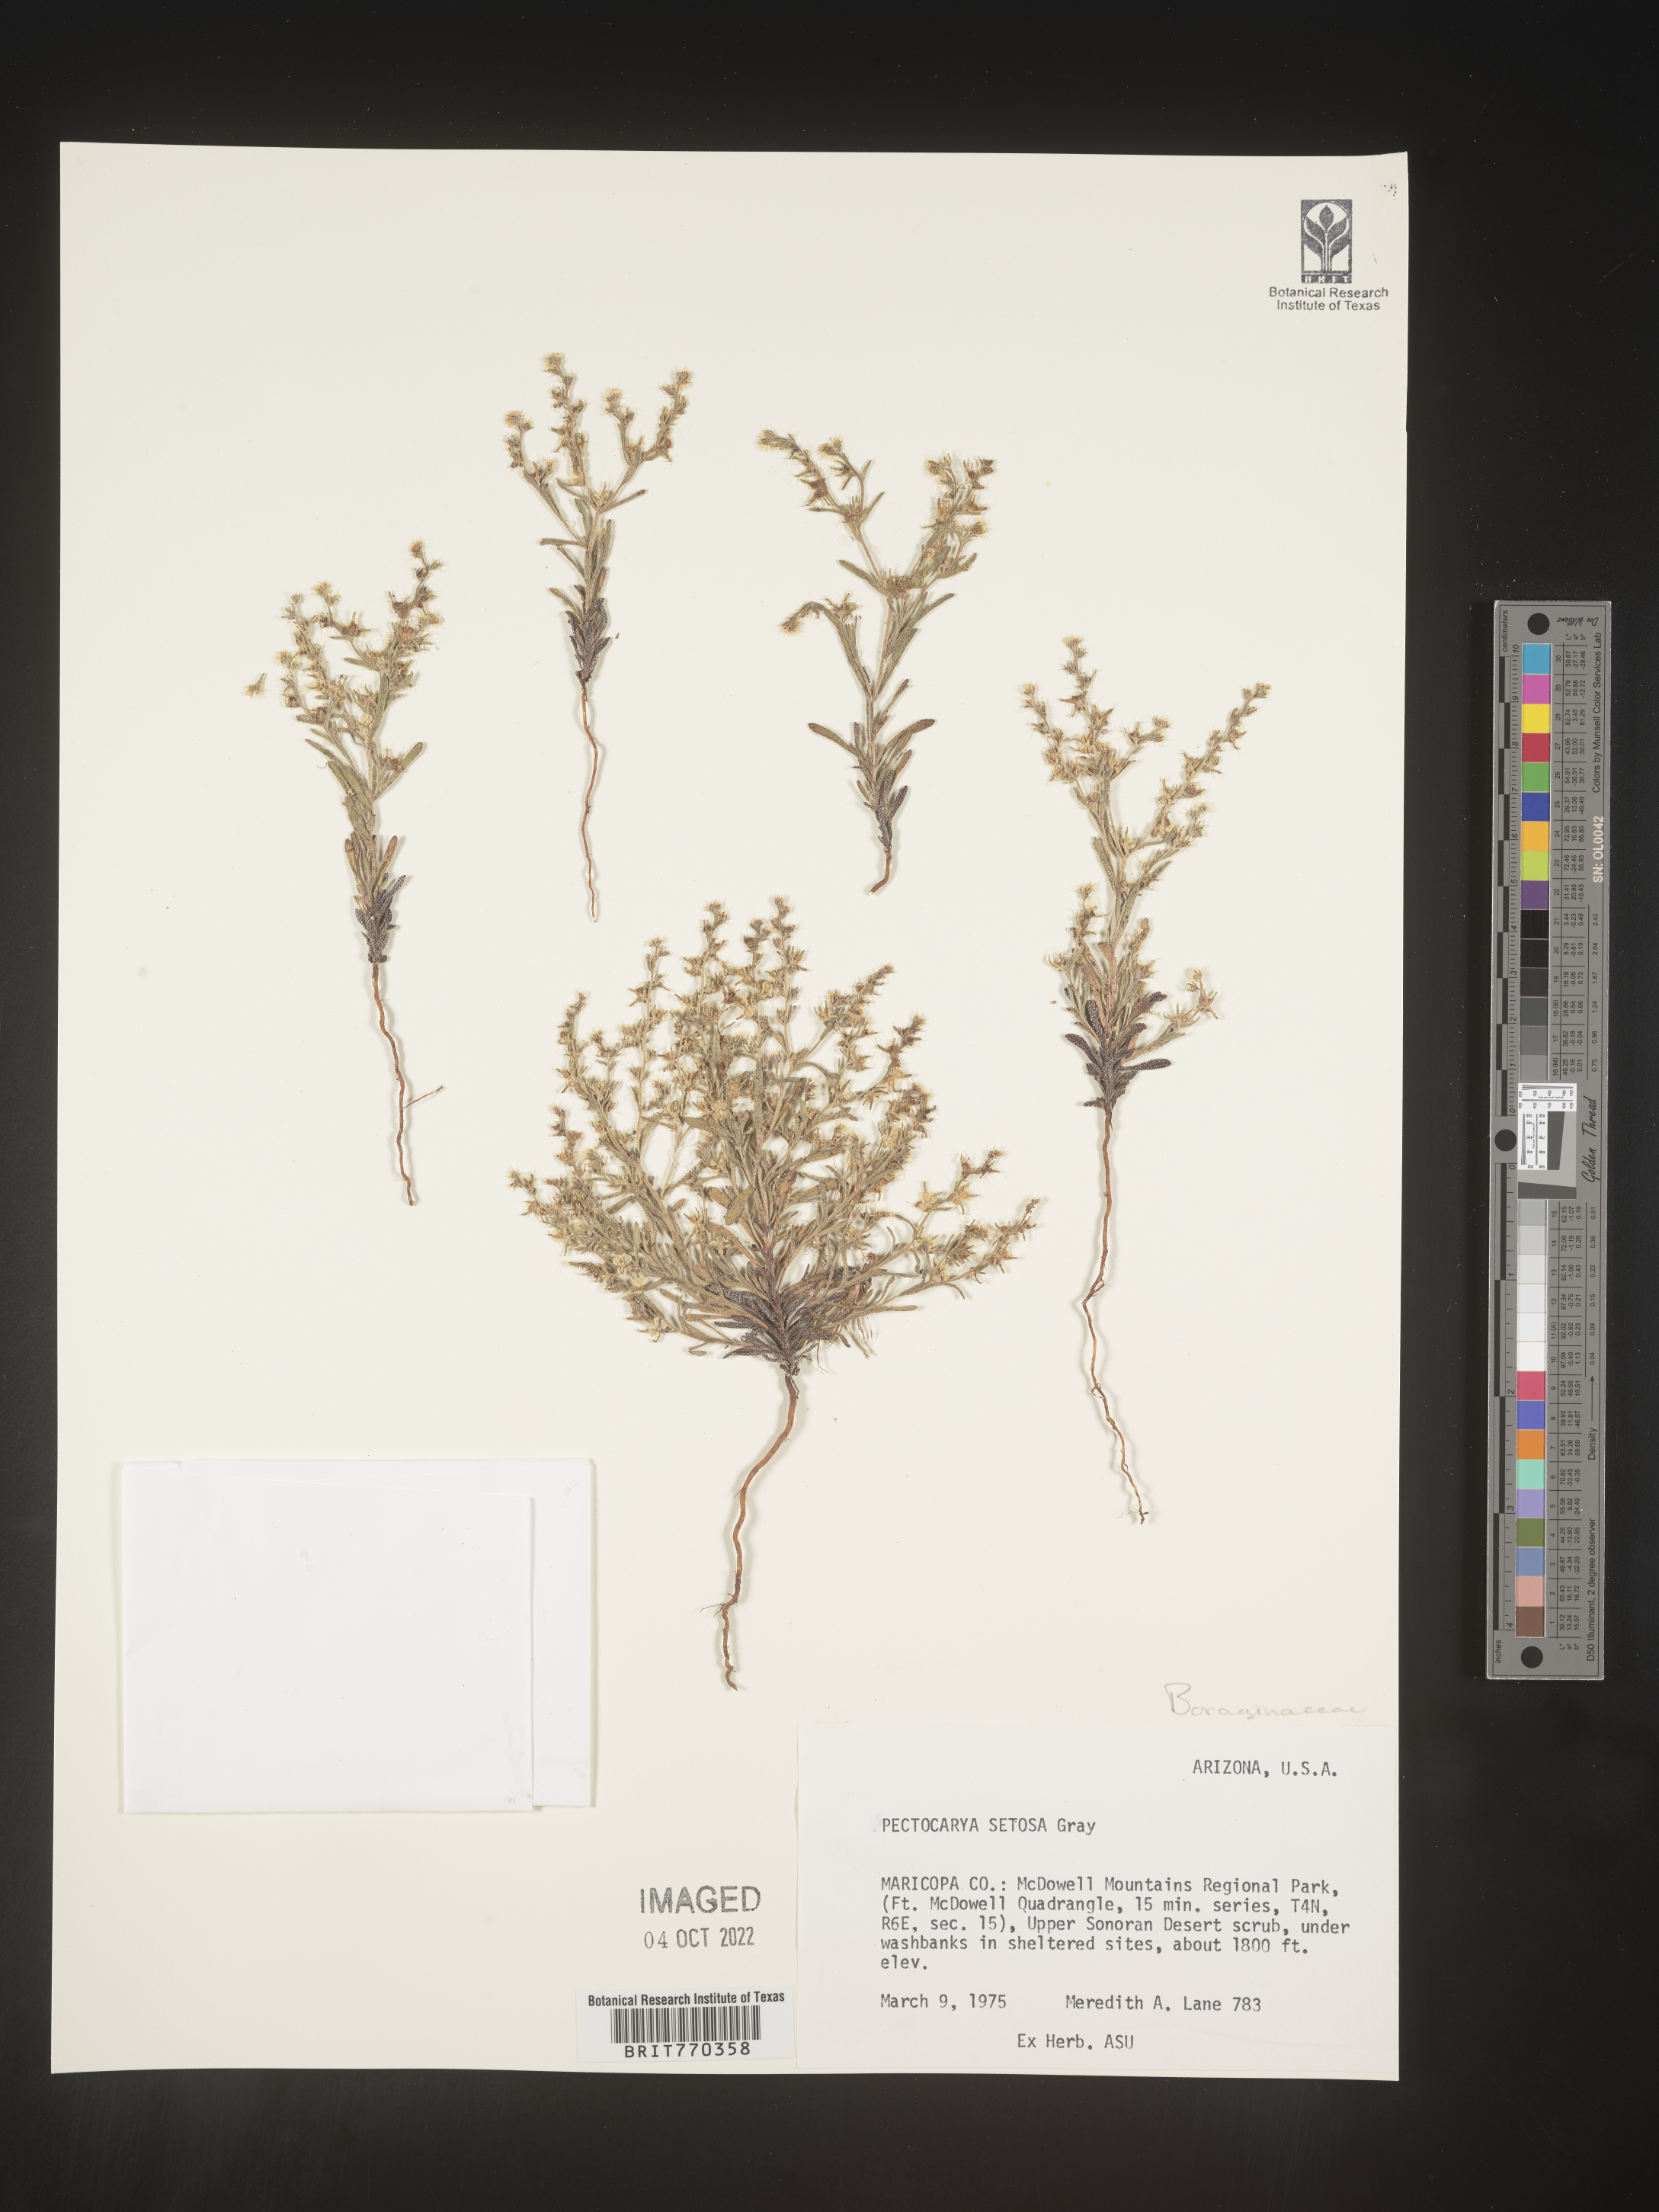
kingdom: Plantae
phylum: Tracheophyta
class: Magnoliopsida
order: Boraginales
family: Boraginaceae
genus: Pectocarya
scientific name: Pectocarya
